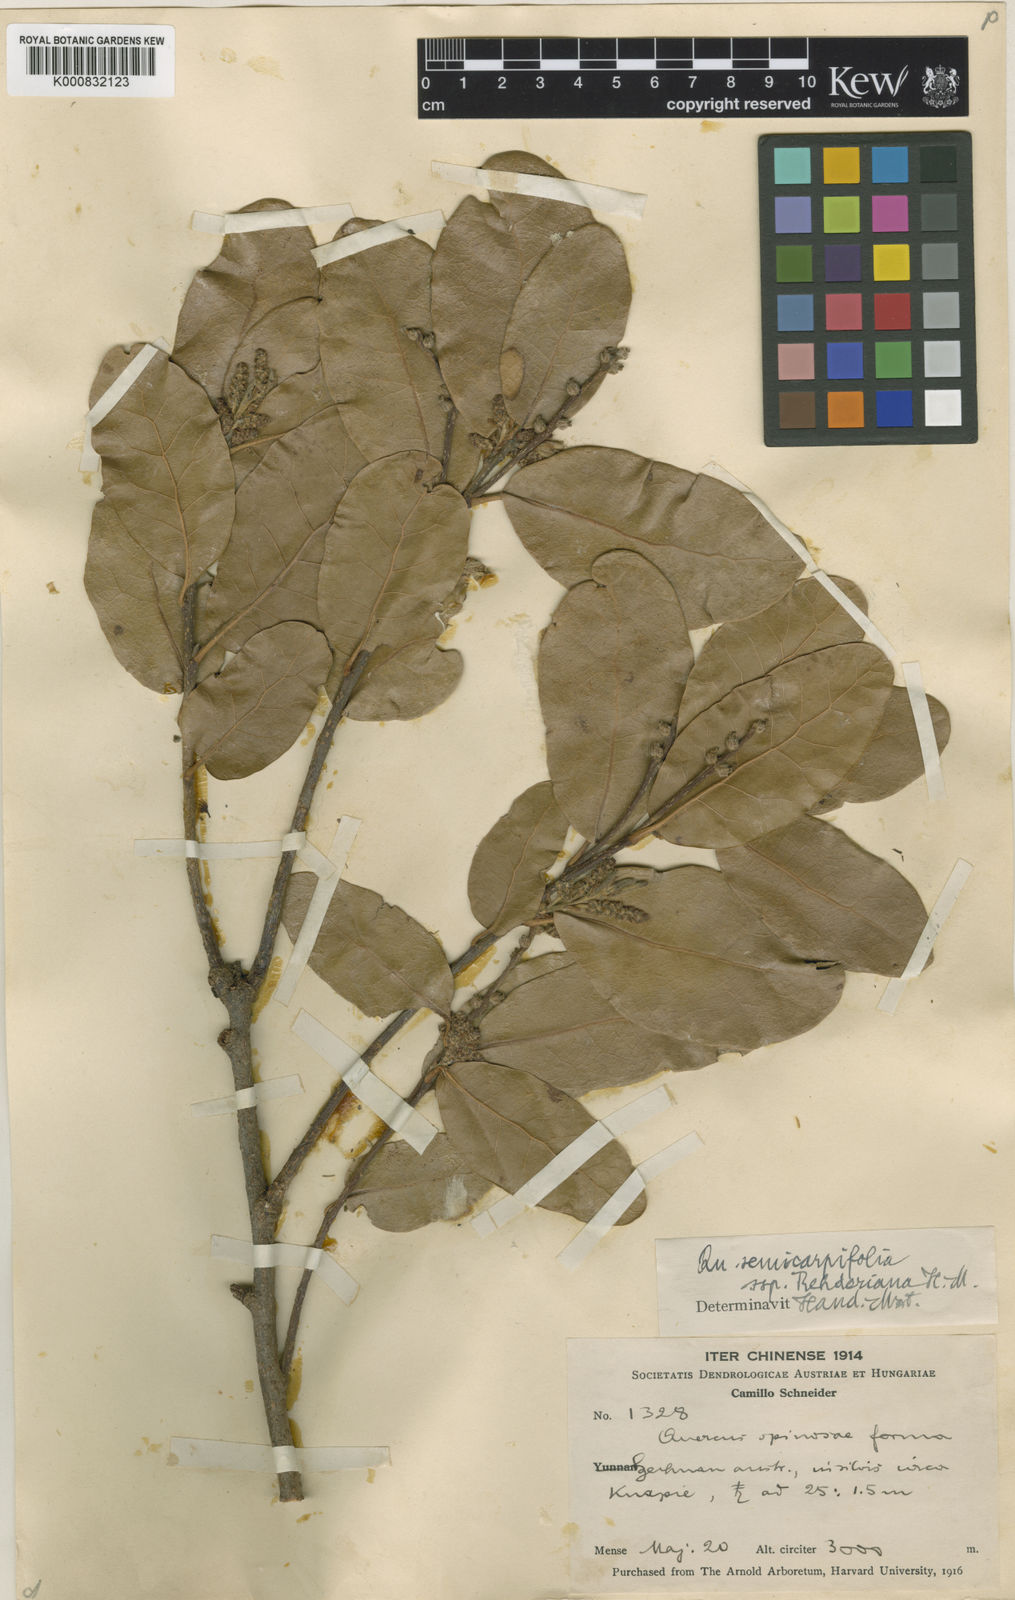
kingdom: Plantae
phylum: Tracheophyta
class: Magnoliopsida
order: Fagales
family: Fagaceae
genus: Quercus
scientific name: Quercus semecarpifolia
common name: Brown oak
